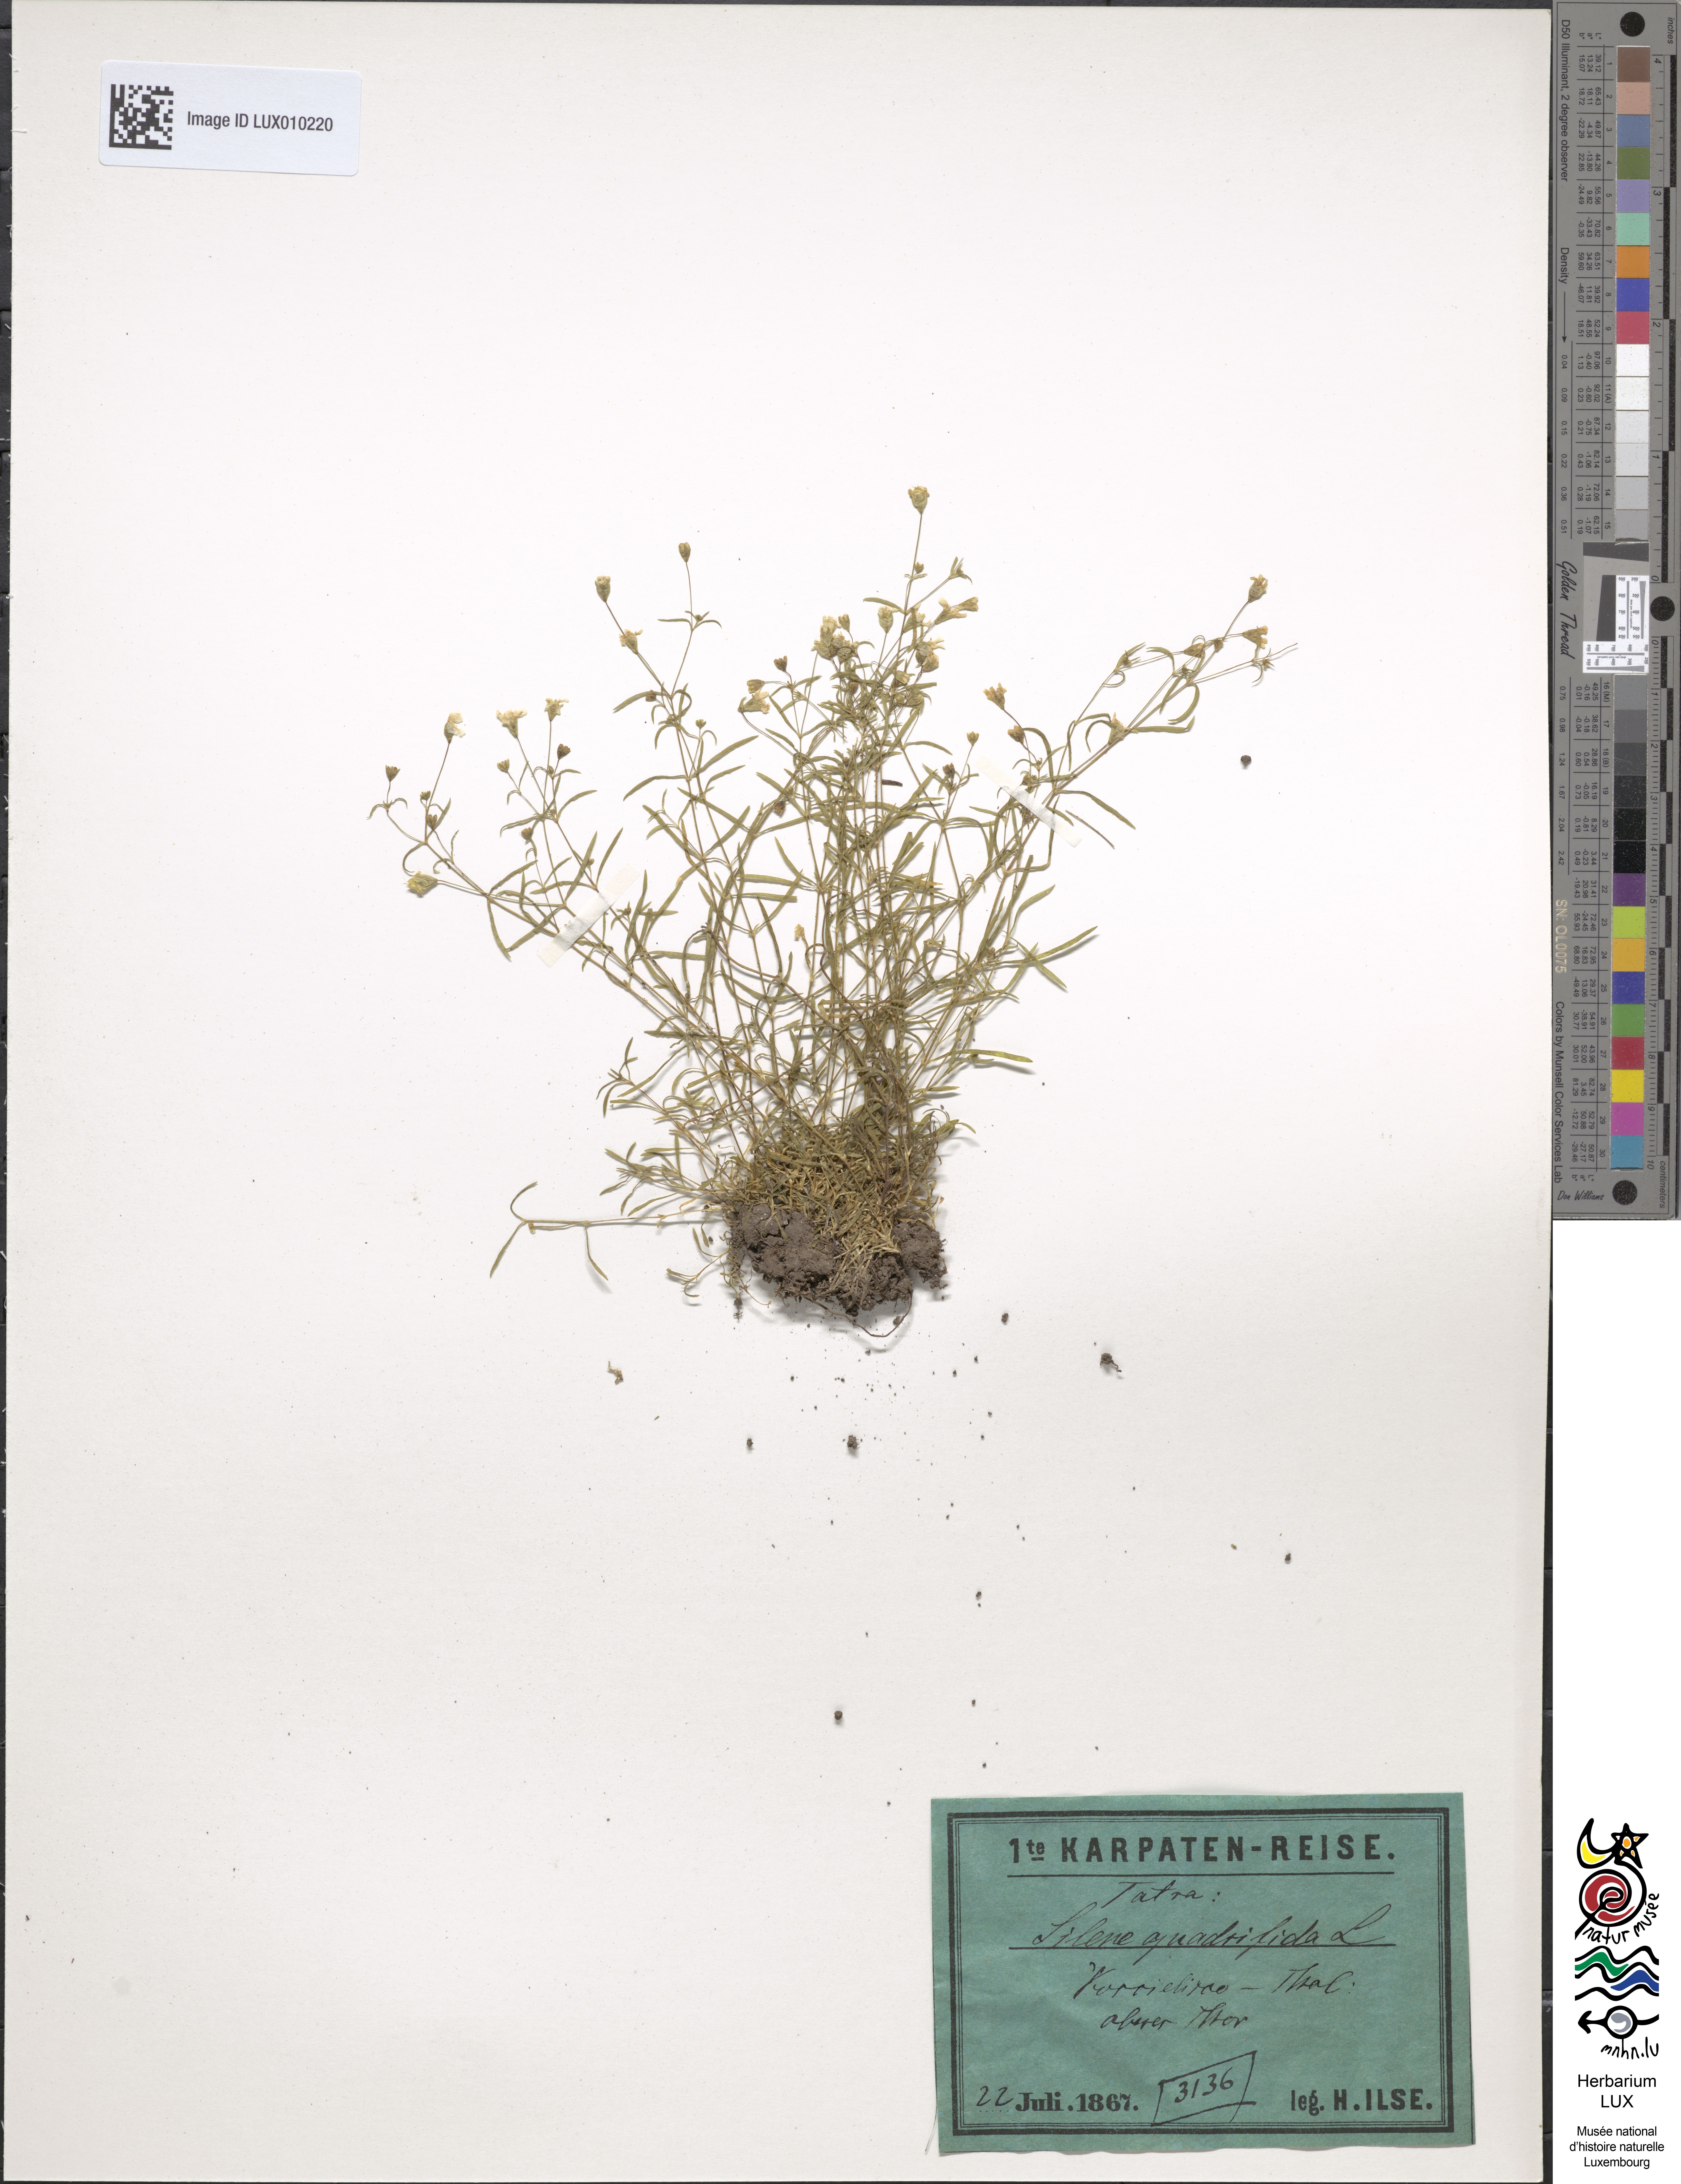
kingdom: Plantae
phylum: Tracheophyta
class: Magnoliopsida
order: Caryophyllales
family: Caryophyllaceae
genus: Heliosperma
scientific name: Heliosperma pusillum
